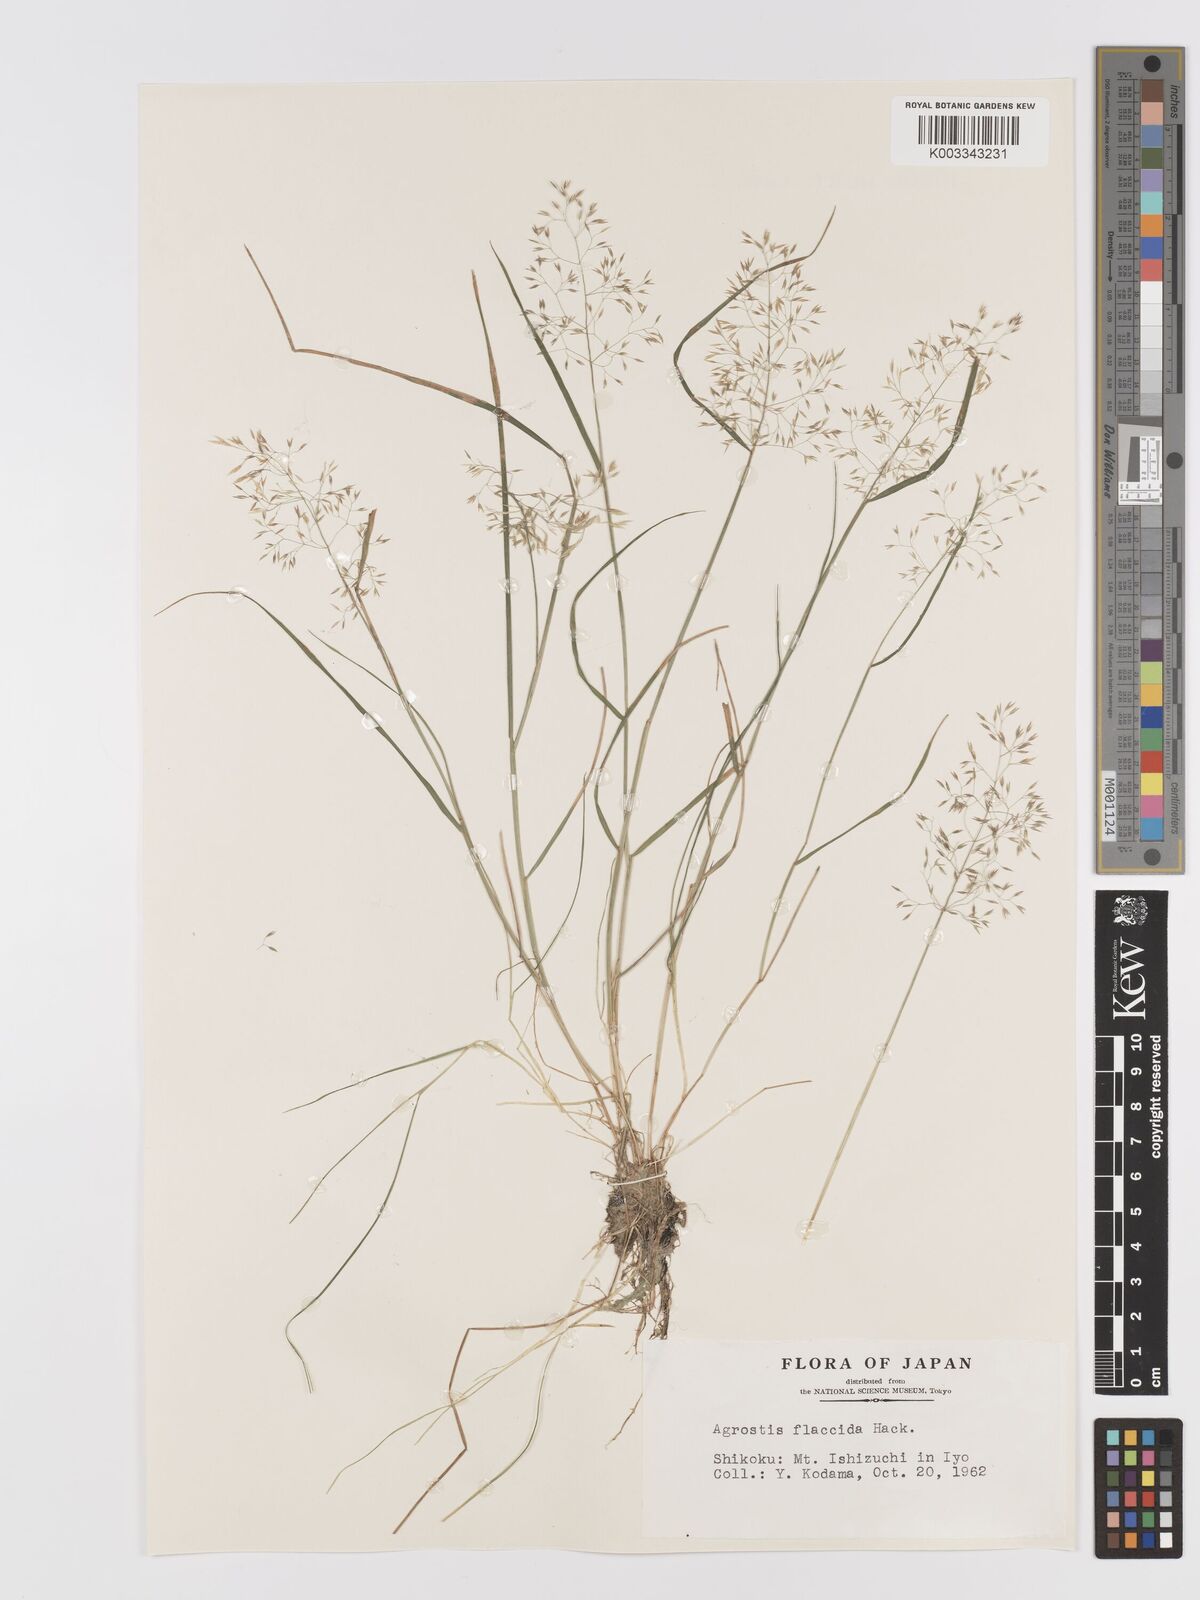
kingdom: Plantae
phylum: Tracheophyta
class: Liliopsida
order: Poales
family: Poaceae
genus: Agrostis
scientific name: Agrostis flaccida
